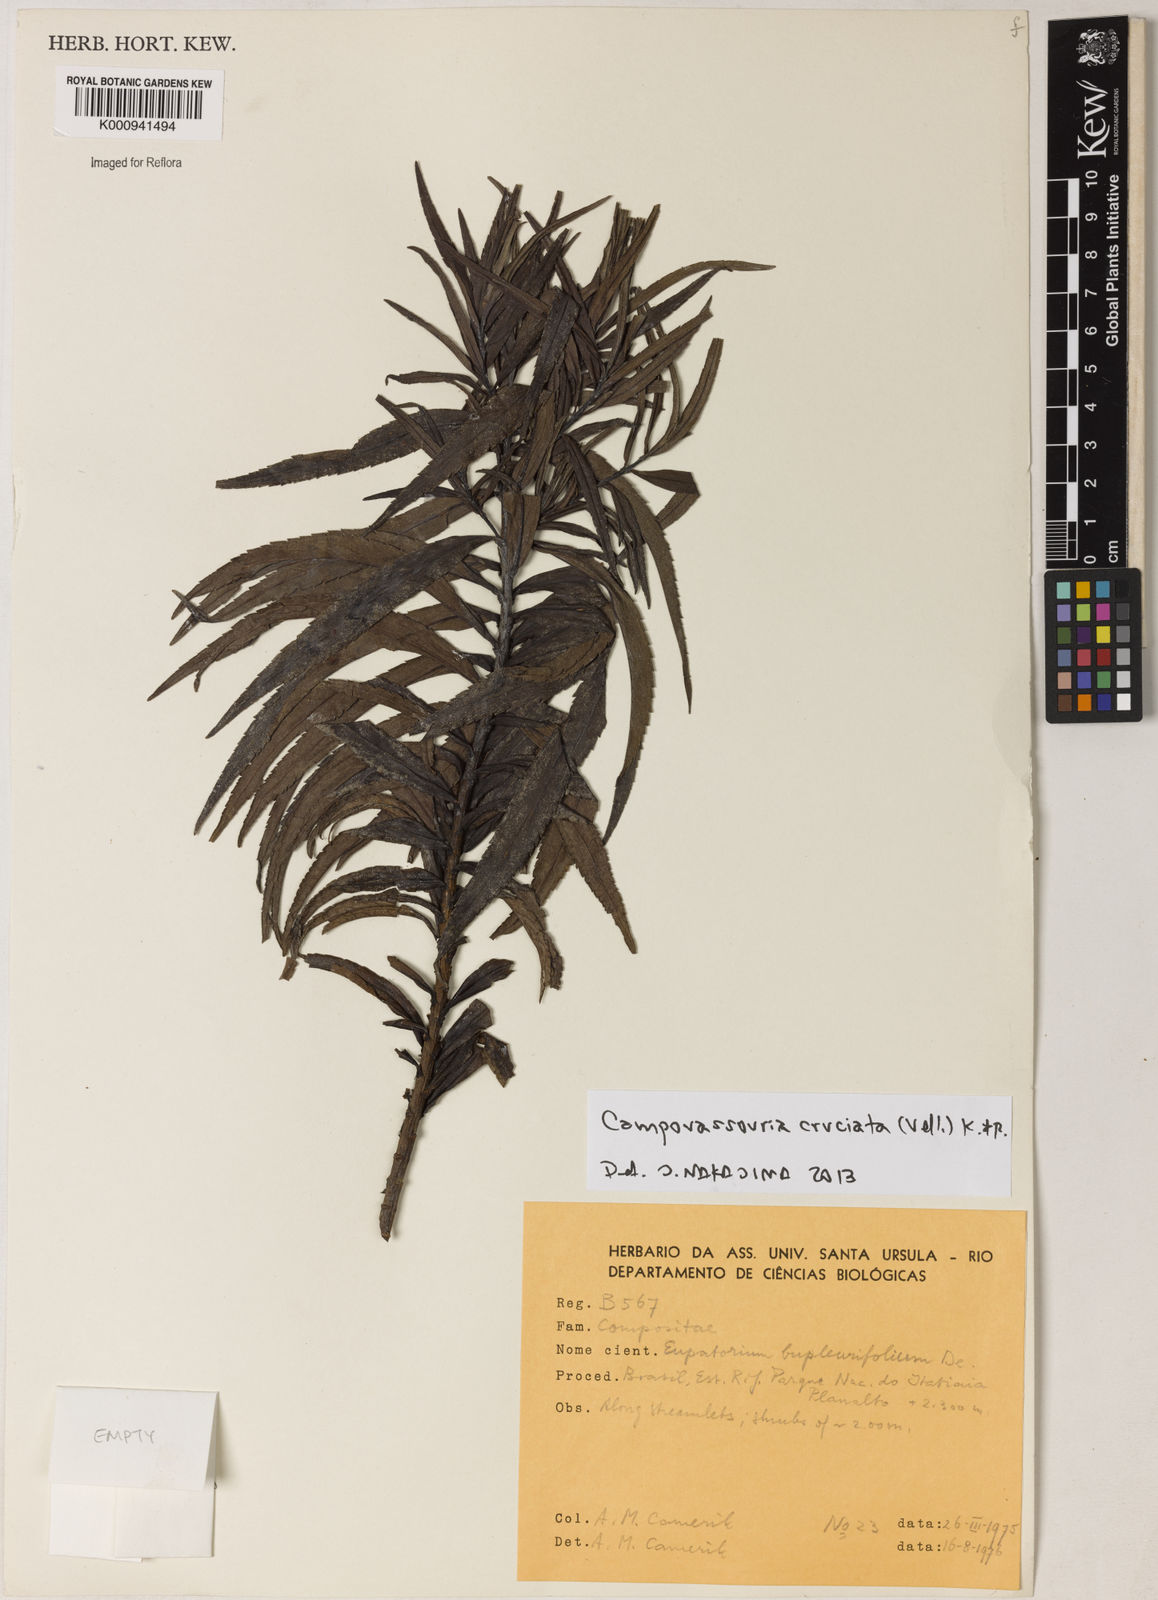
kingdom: Plantae
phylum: Tracheophyta
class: Magnoliopsida
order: Asterales
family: Asteraceae
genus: Campovassouria
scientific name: Campovassouria cruciata
